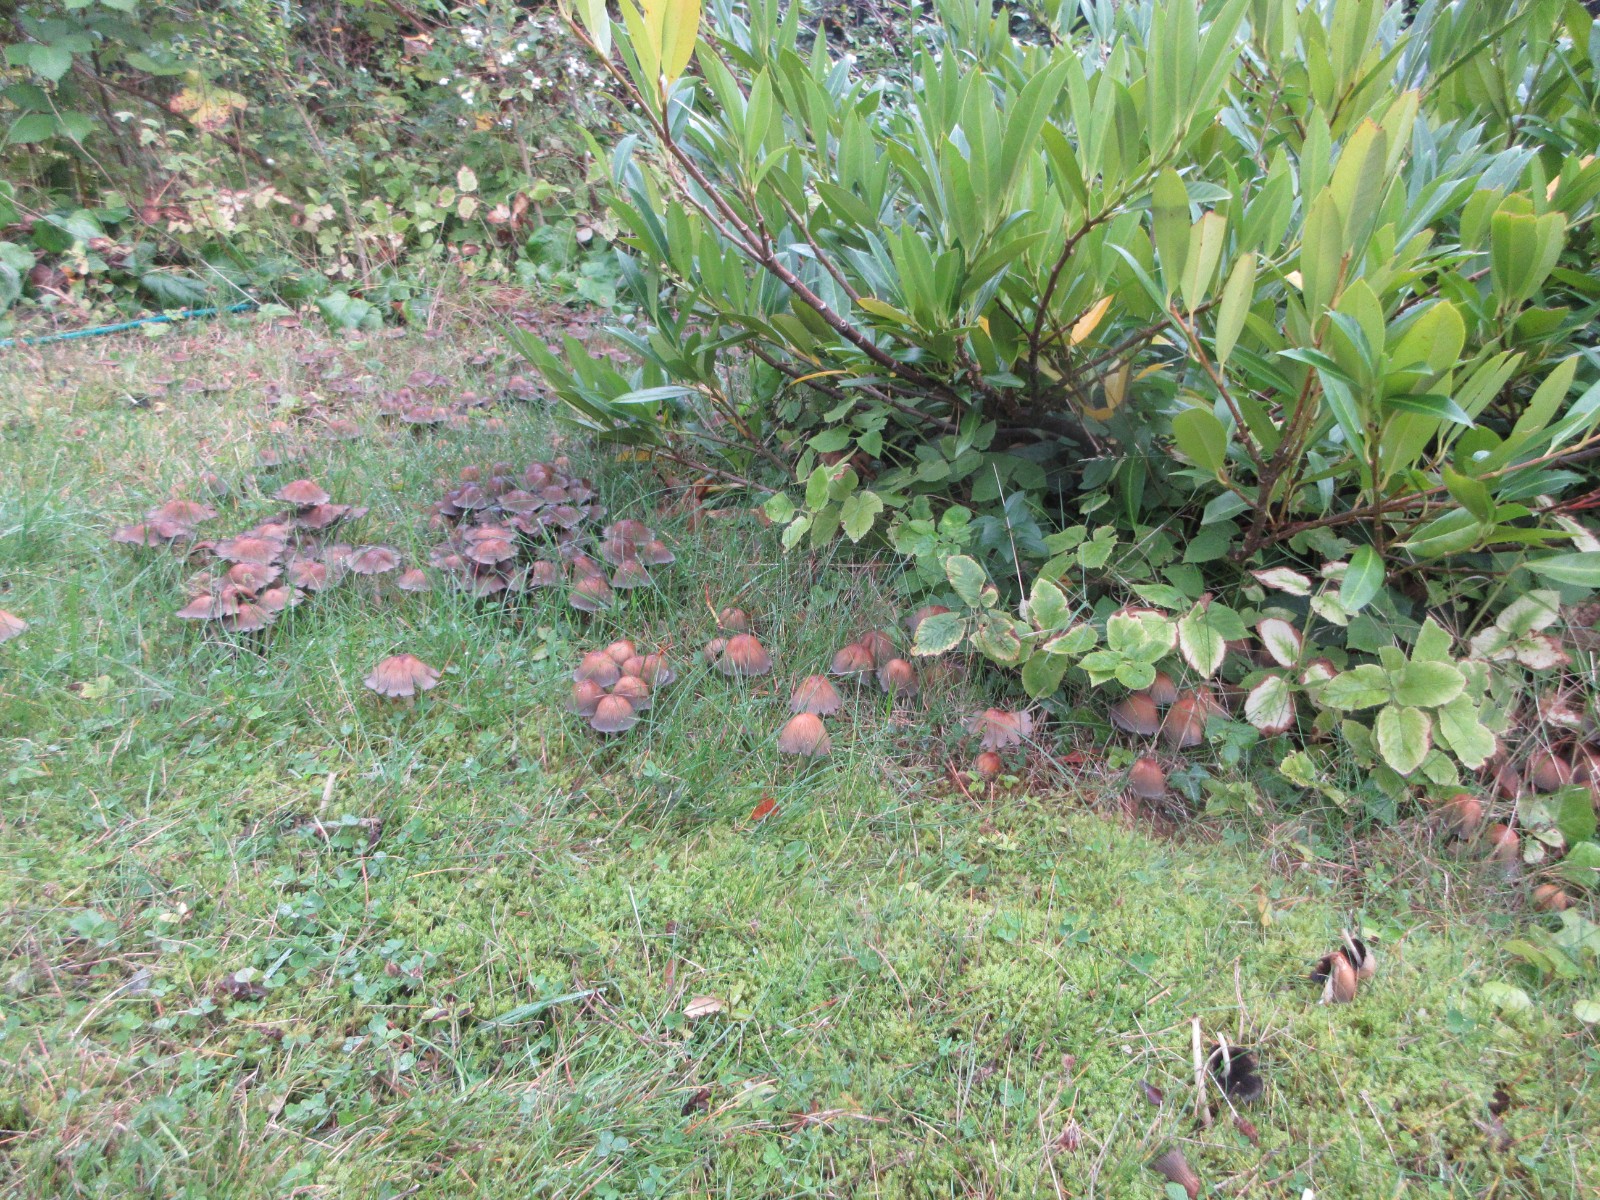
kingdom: Fungi
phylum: Basidiomycota
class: Agaricomycetes
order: Agaricales
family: Psathyrellaceae
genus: Coprinellus
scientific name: Coprinellus
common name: blækhat
